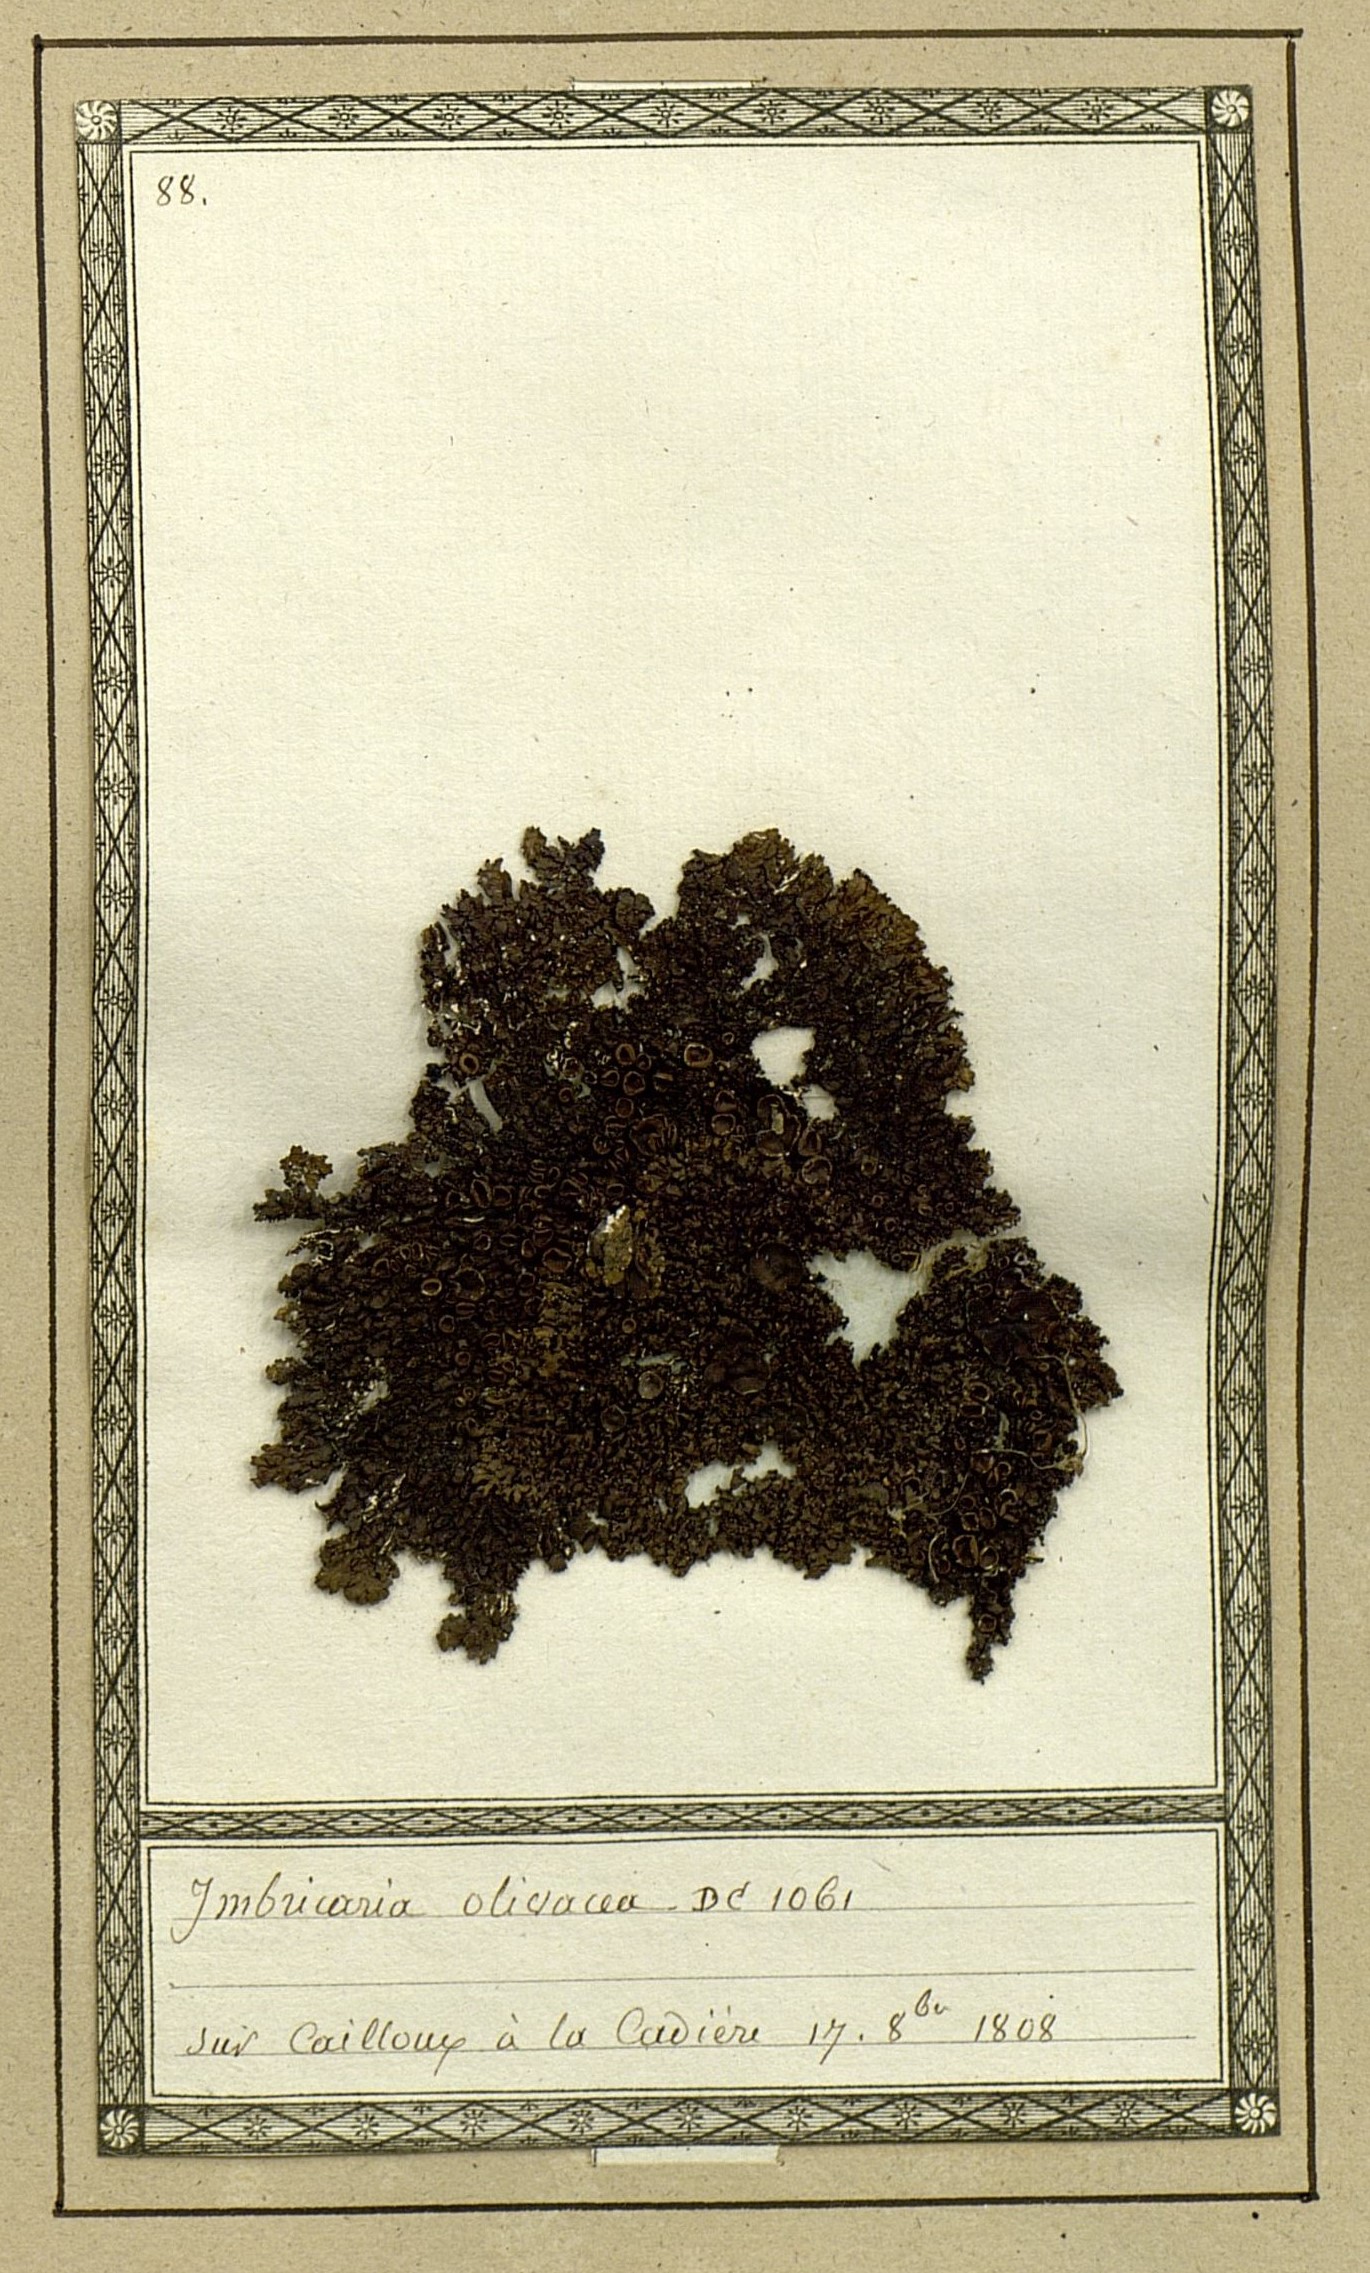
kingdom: Fungi
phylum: Ascomycota
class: Lecanoromycetes
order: Lecanorales
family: Parmeliaceae
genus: Melanohalea
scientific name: Melanohalea olivacea
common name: Spotted camouflage lichen
